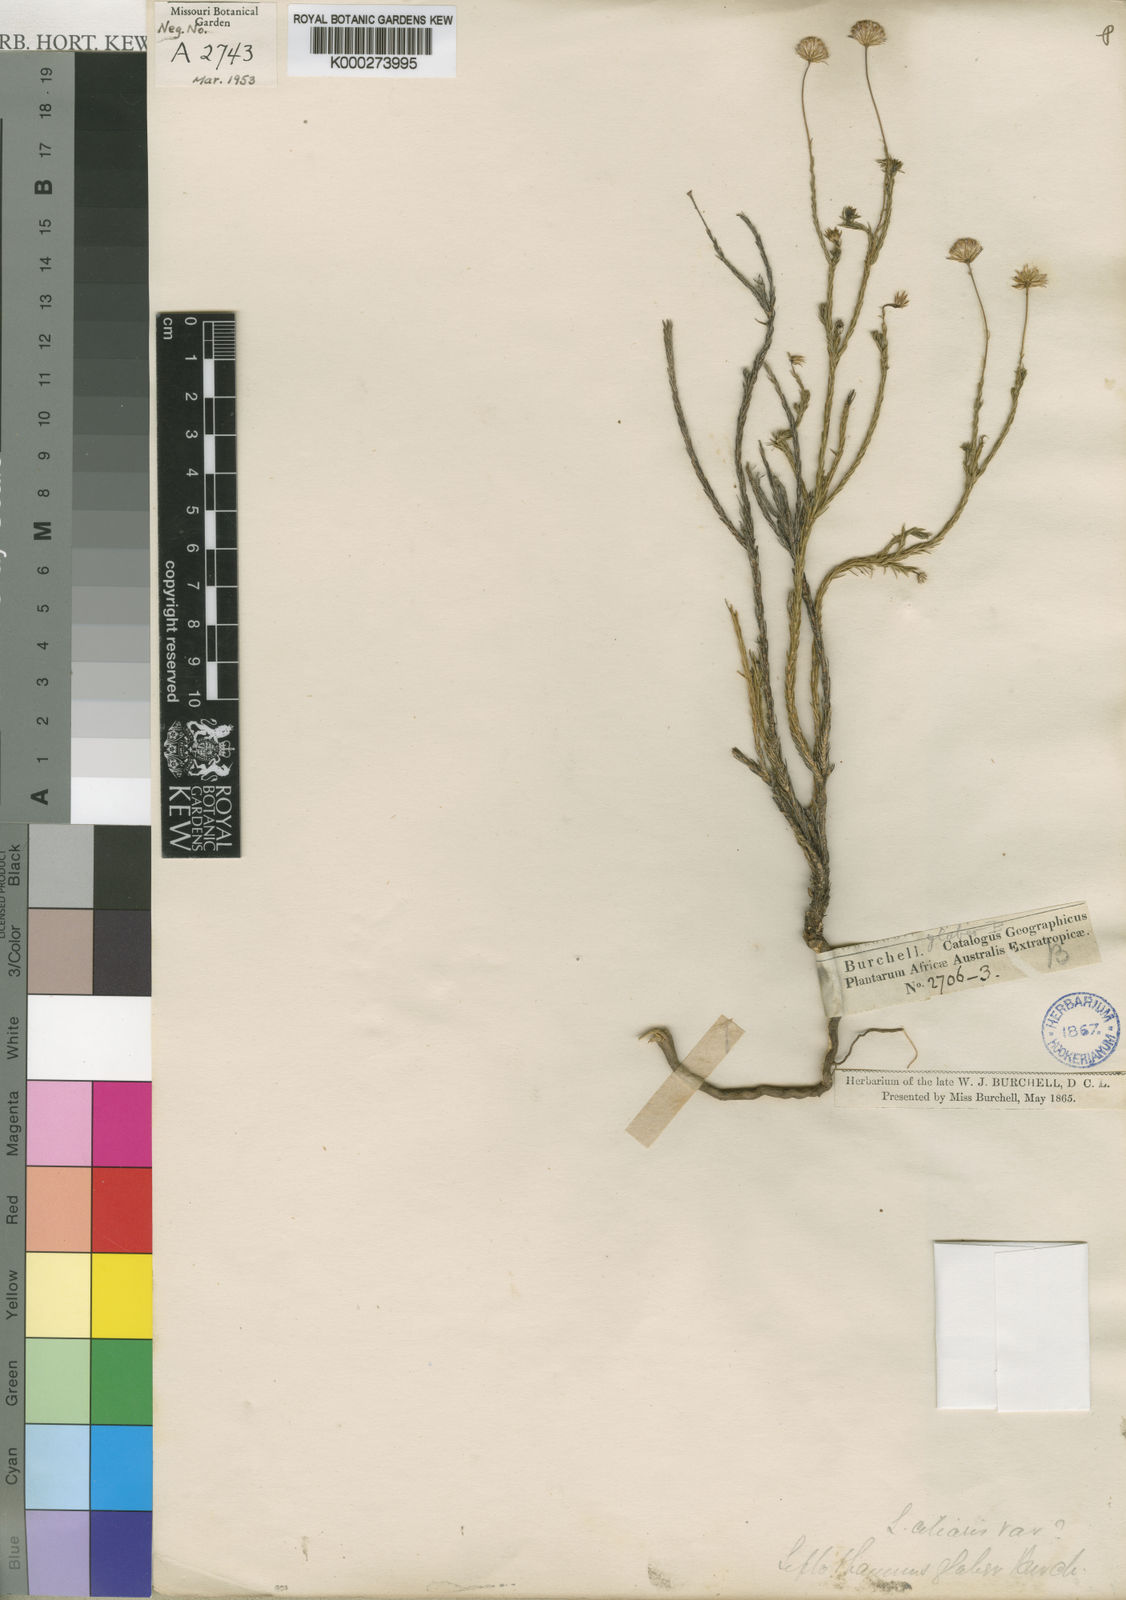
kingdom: Plantae
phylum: Tracheophyta
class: Magnoliopsida
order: Asterales
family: Asteraceae
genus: Nolletia
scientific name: Nolletia
